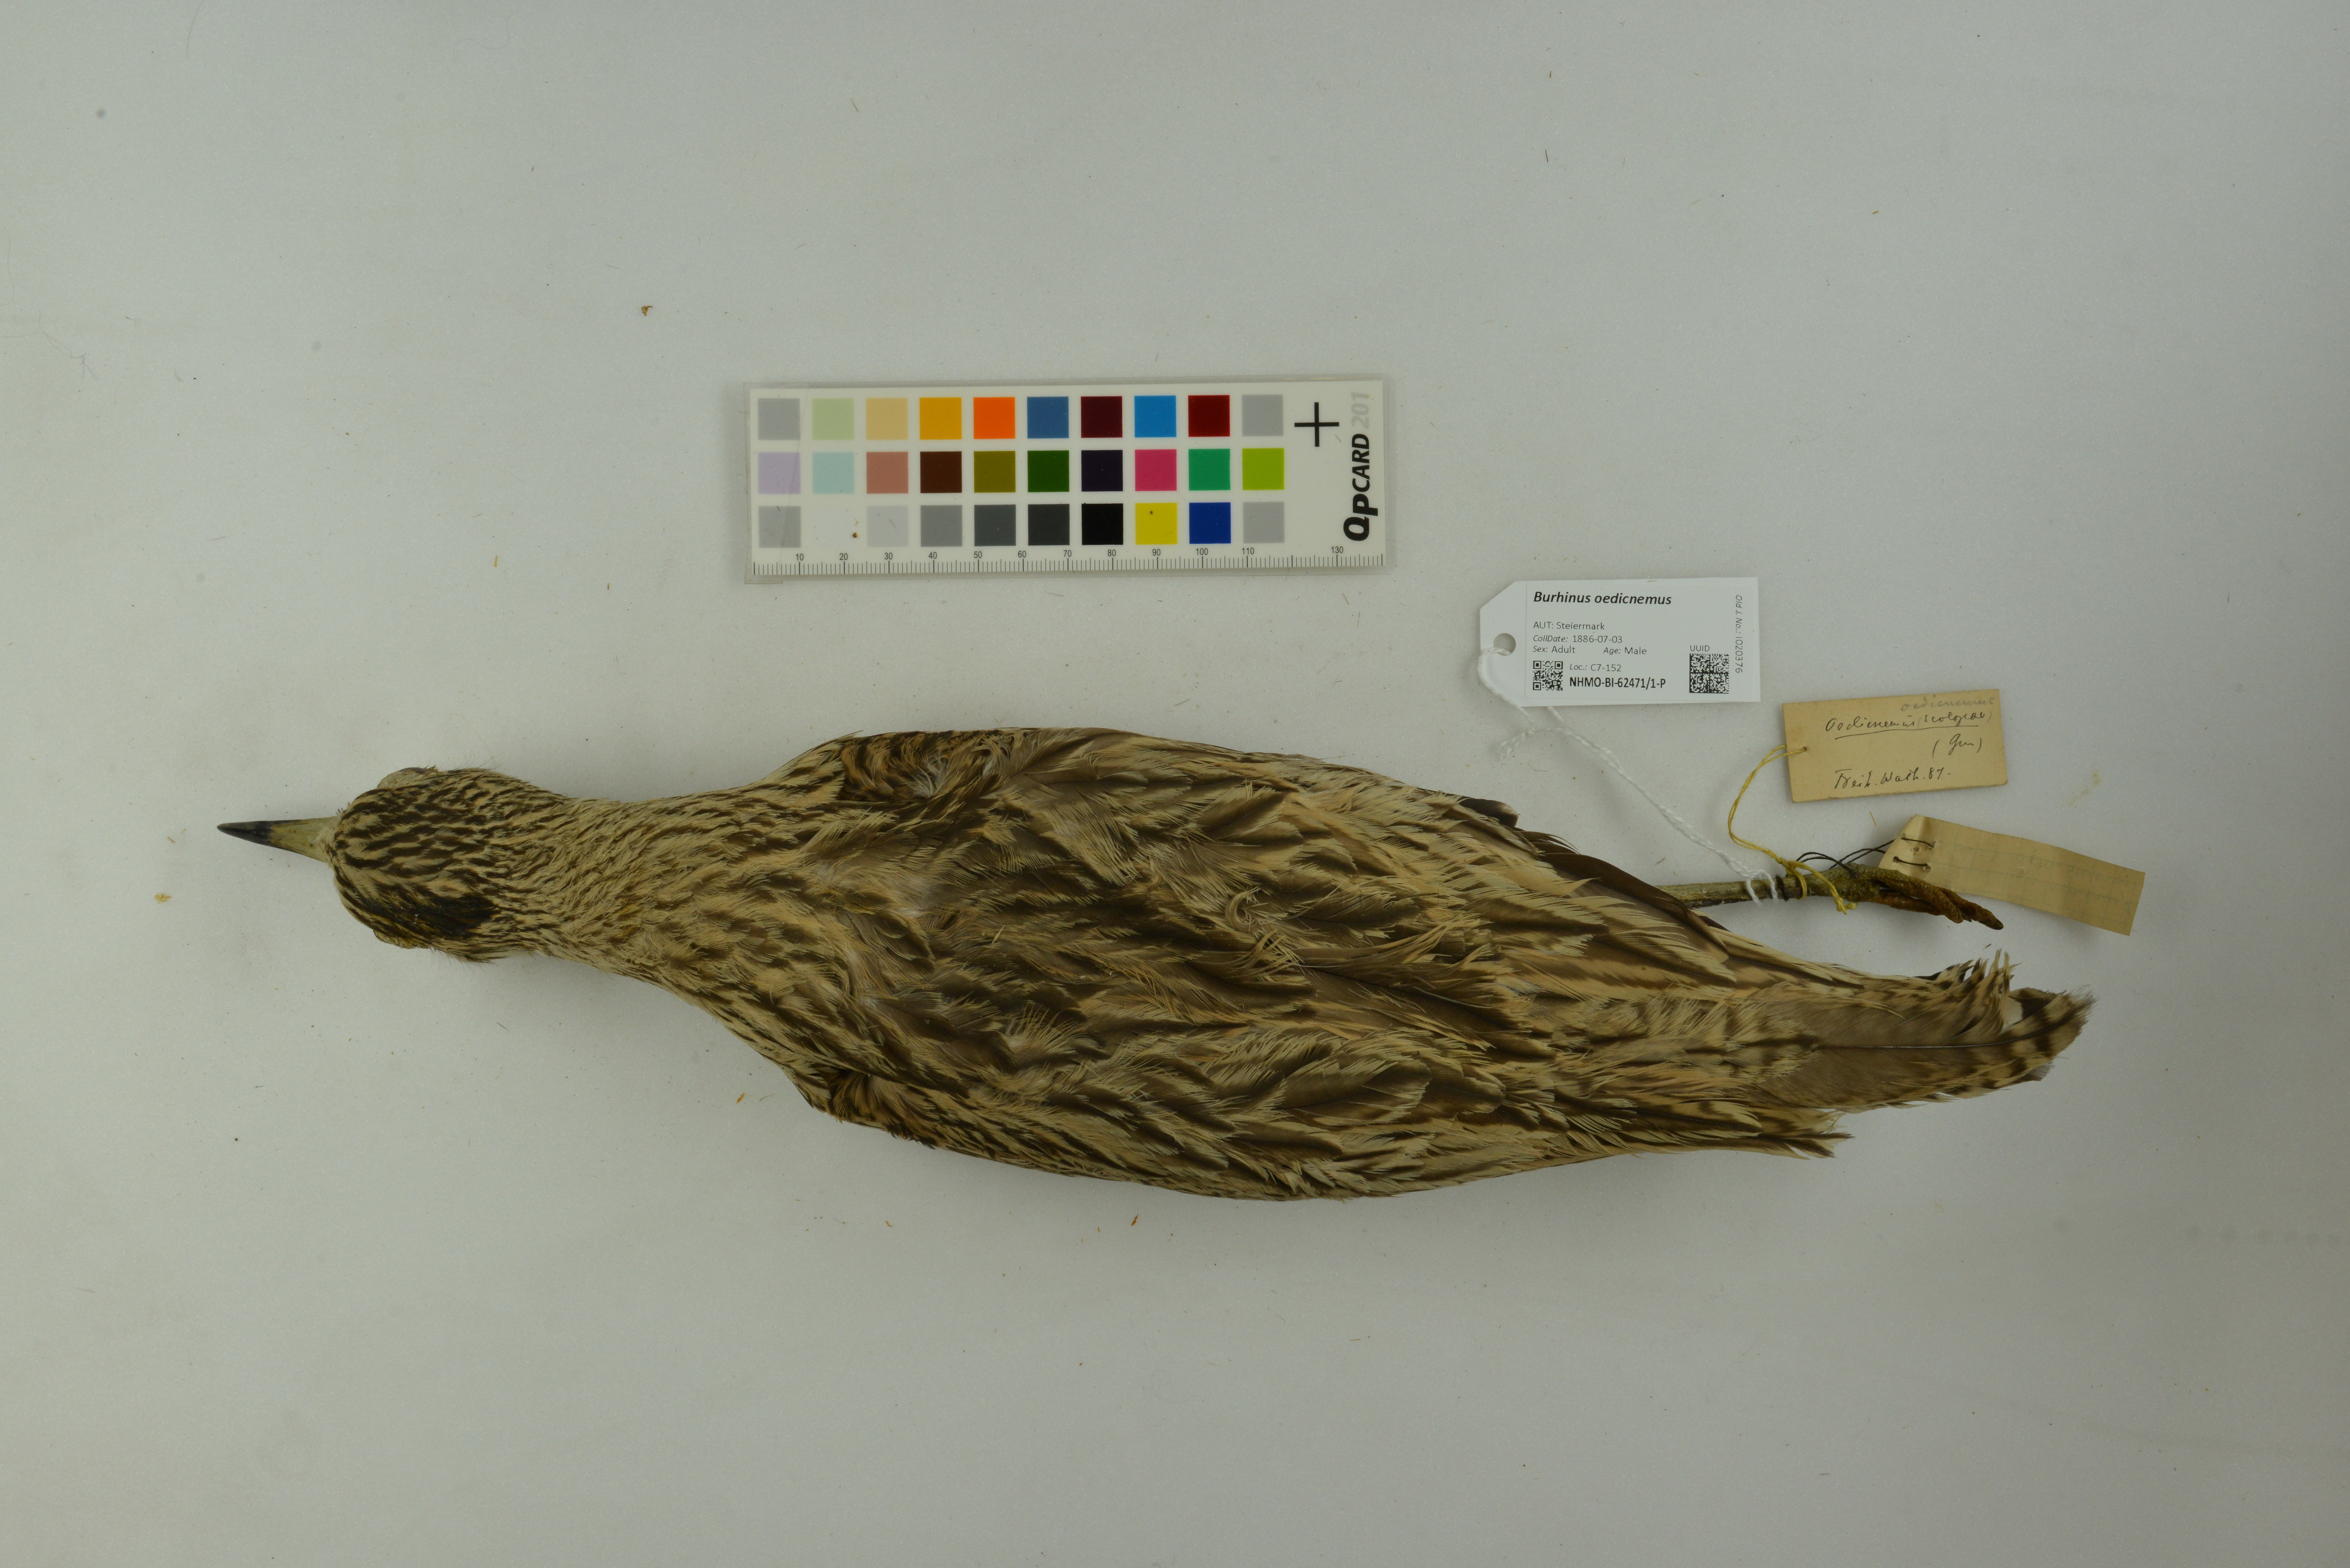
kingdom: Animalia
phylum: Chordata
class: Aves
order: Charadriiformes
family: Burhinidae
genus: Burhinus
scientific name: Burhinus oedicnemus
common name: Eurasian stone-curlew
